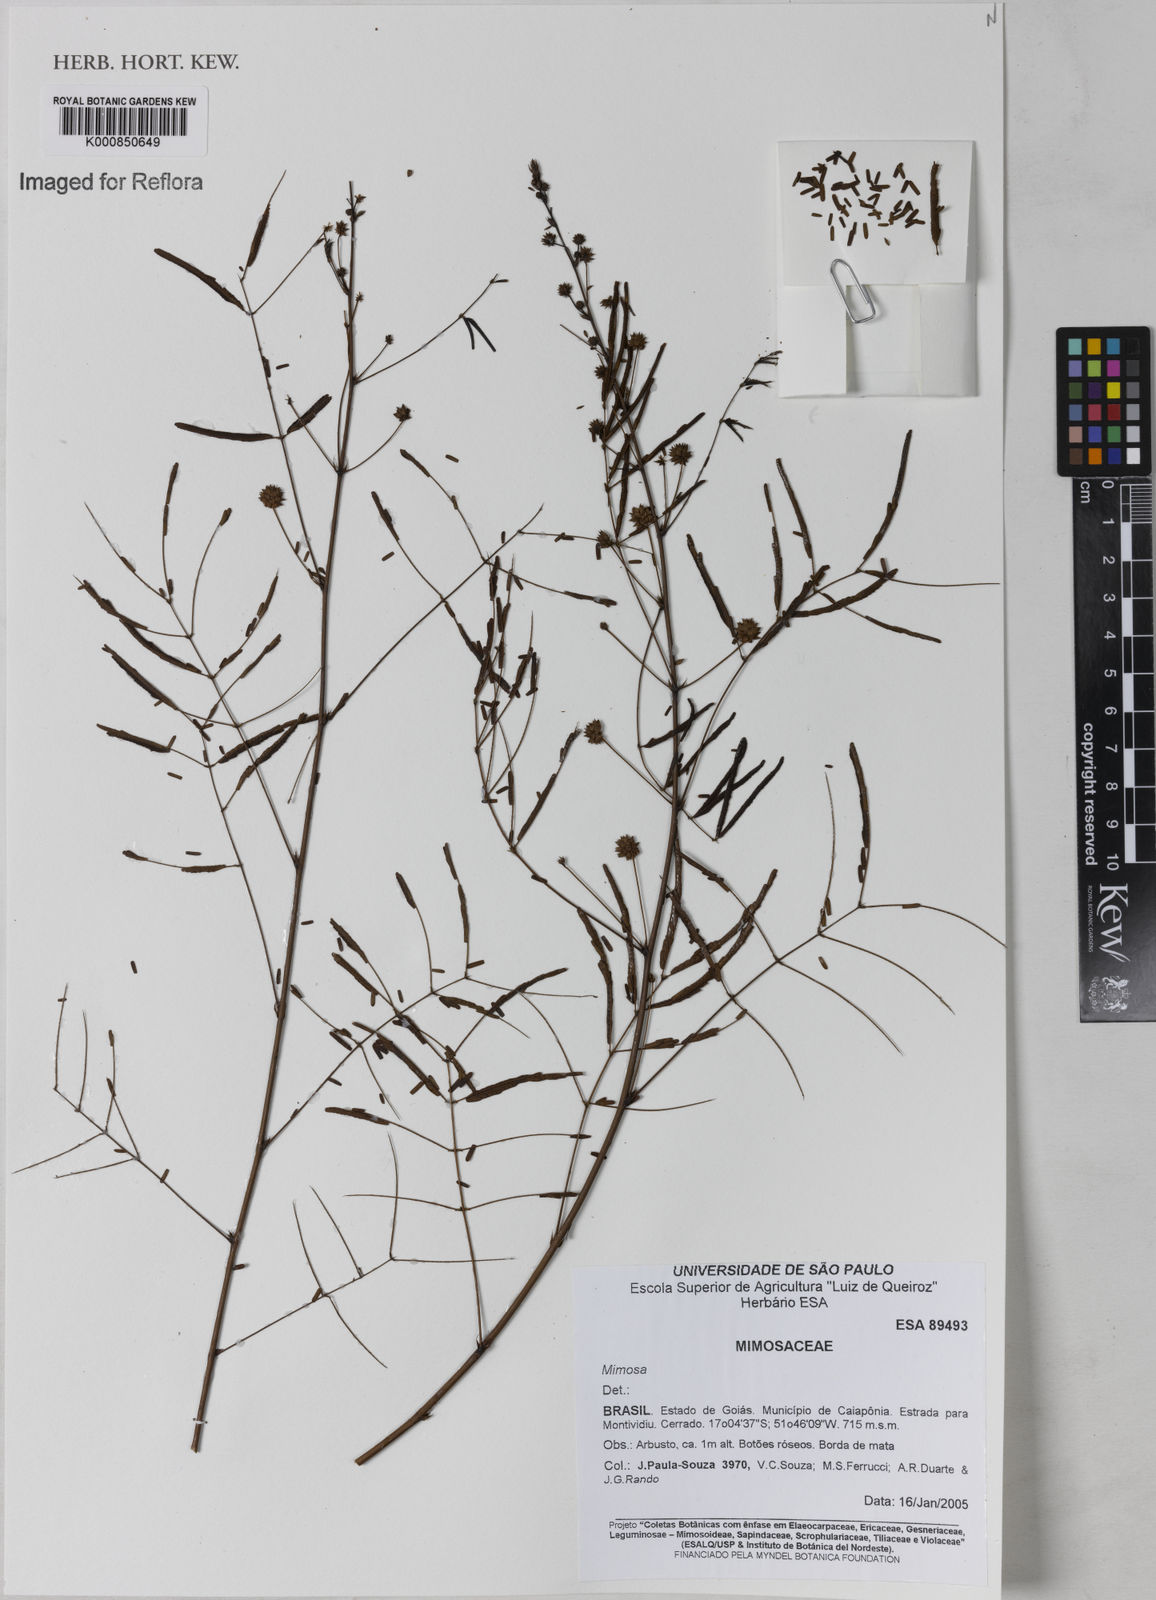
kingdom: Plantae
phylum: Tracheophyta
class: Magnoliopsida
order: Fabales
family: Fabaceae
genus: Mimosa
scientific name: Mimosa
